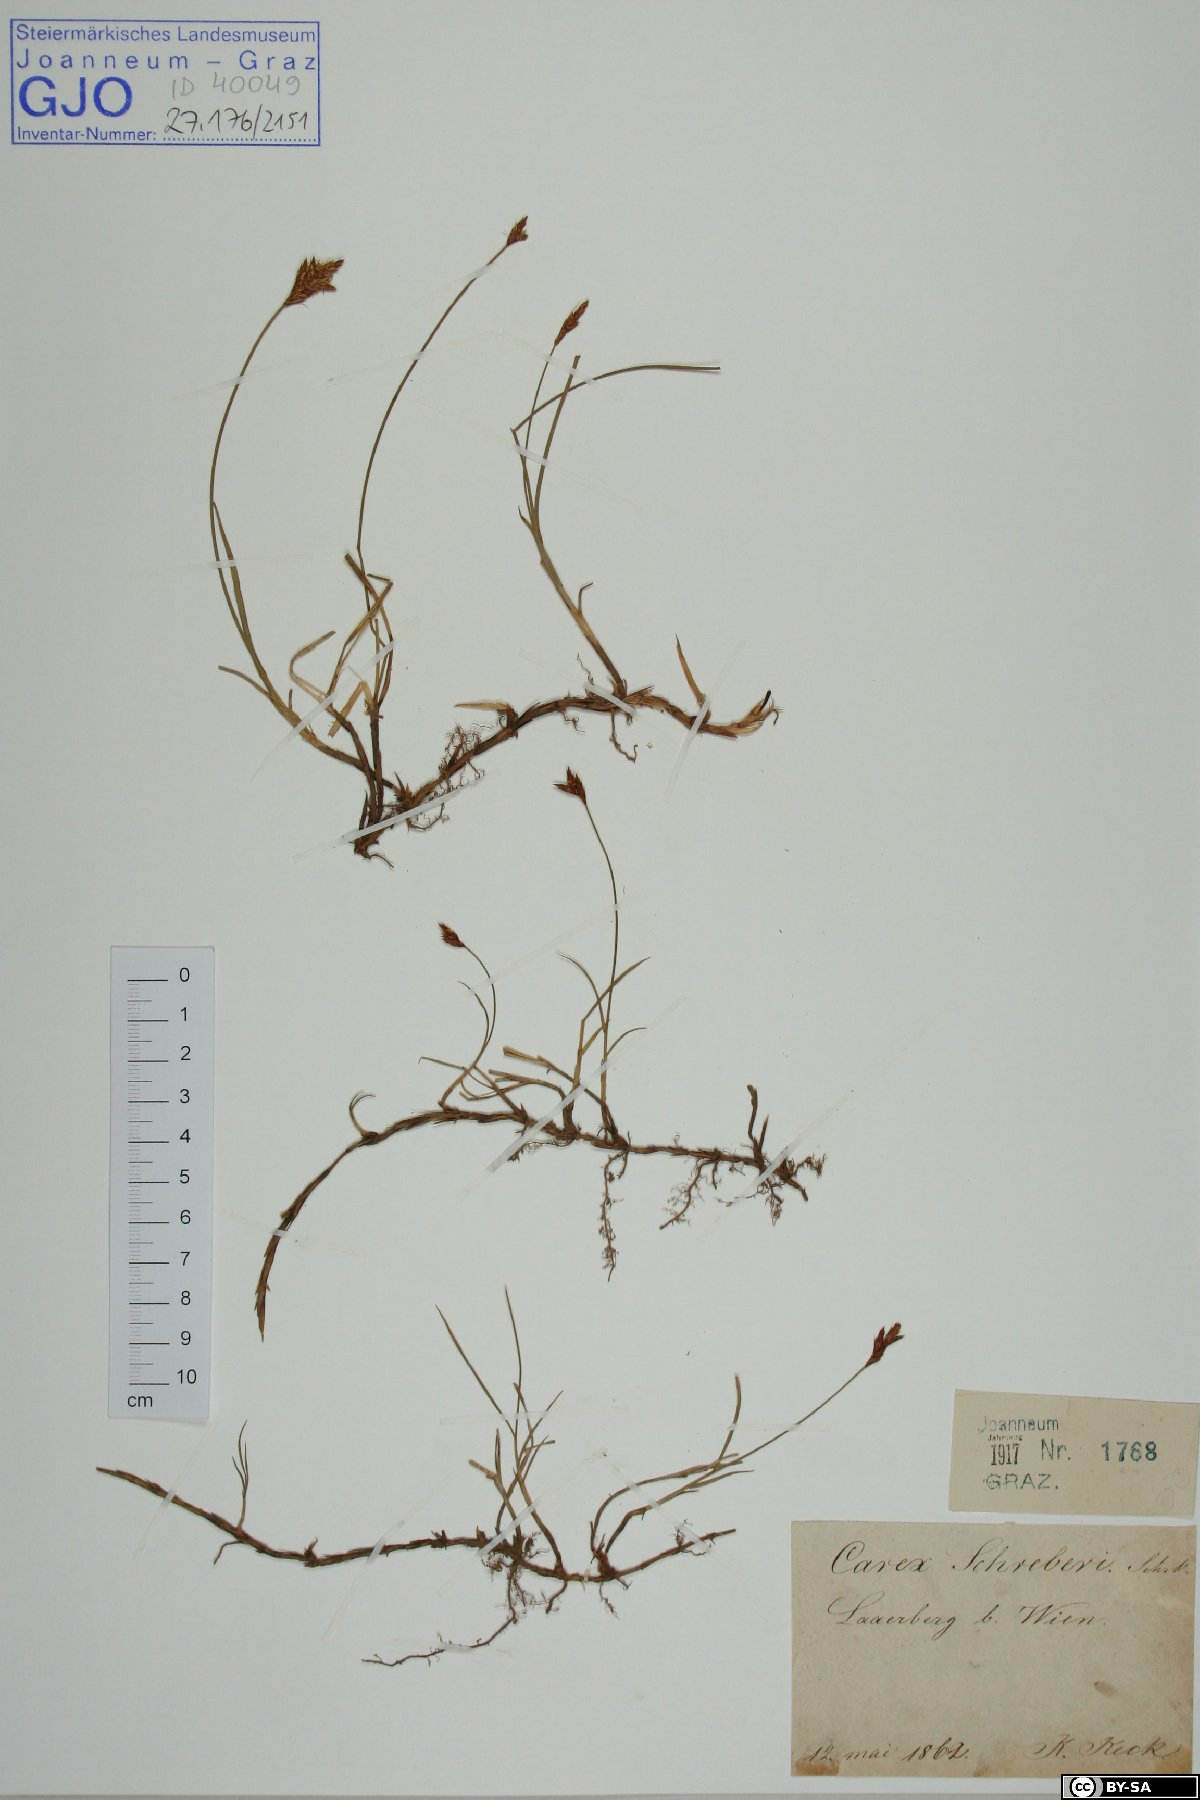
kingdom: Plantae
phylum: Tracheophyta
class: Liliopsida
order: Poales
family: Cyperaceae
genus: Carex
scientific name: Carex praecox
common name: Early sedge
